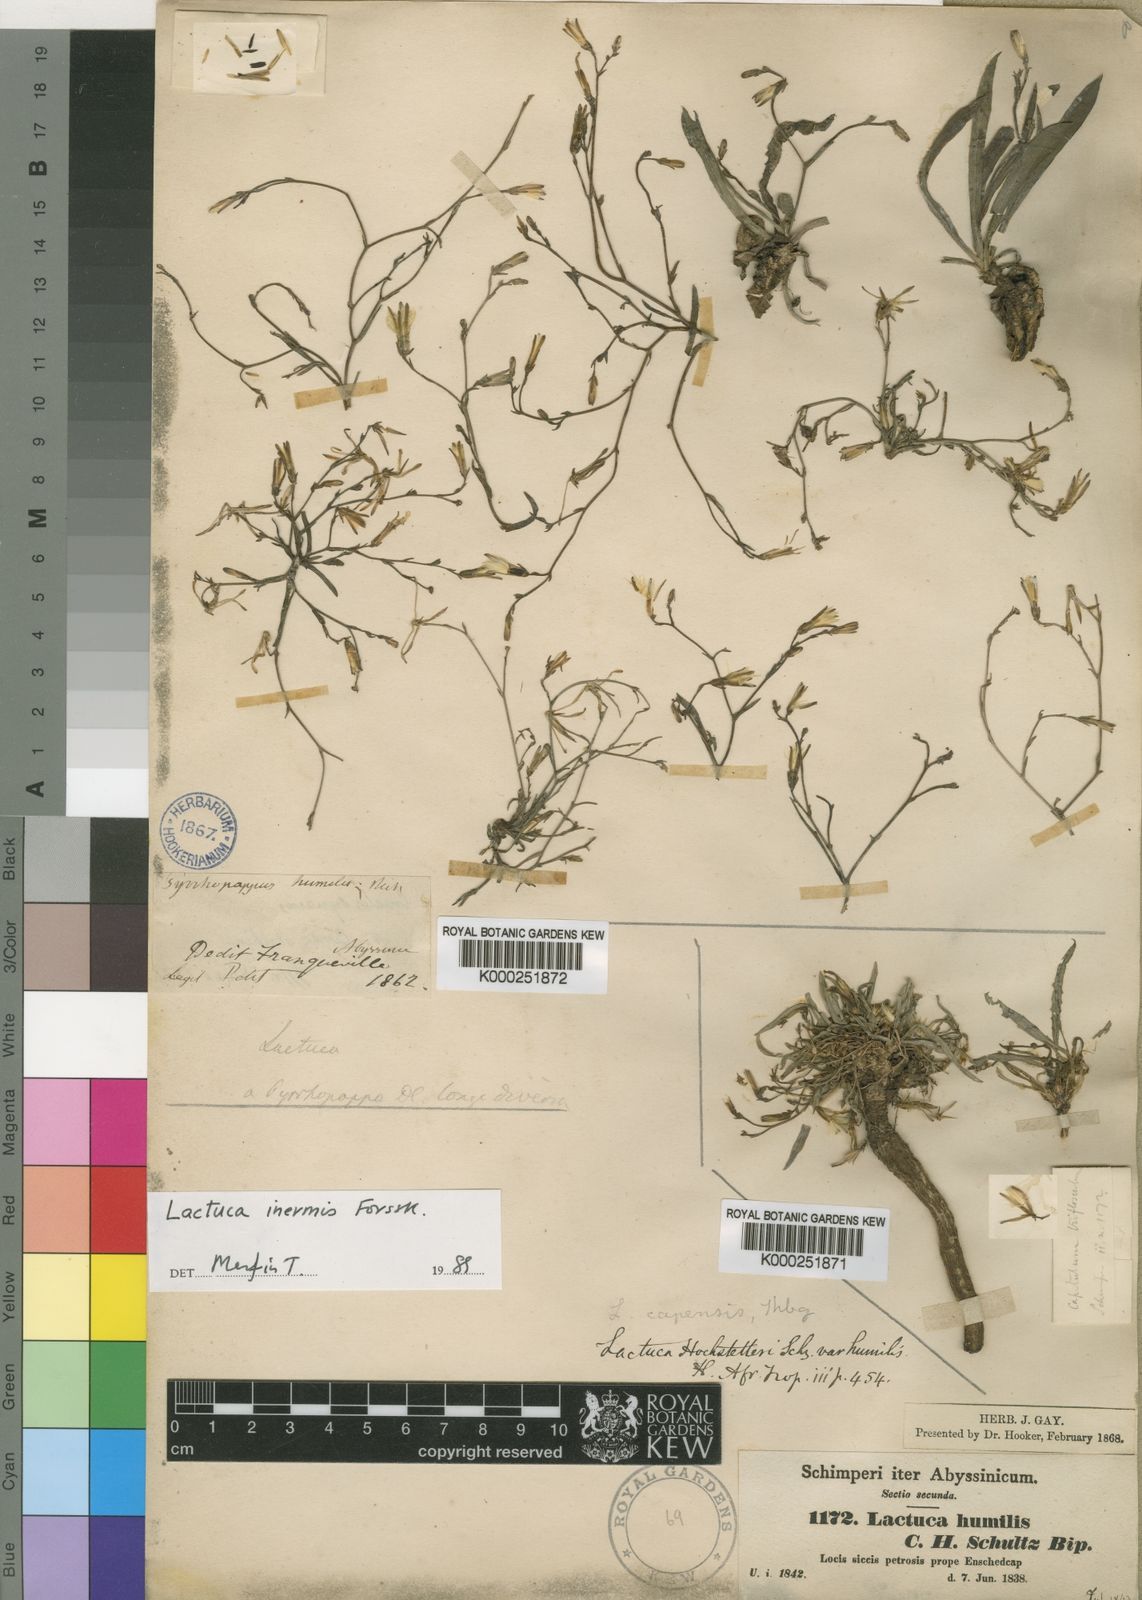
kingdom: Plantae
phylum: Tracheophyta
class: Magnoliopsida
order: Asterales
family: Asteraceae
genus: Lactuca
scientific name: Lactuca inermis
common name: Wild lettuce
